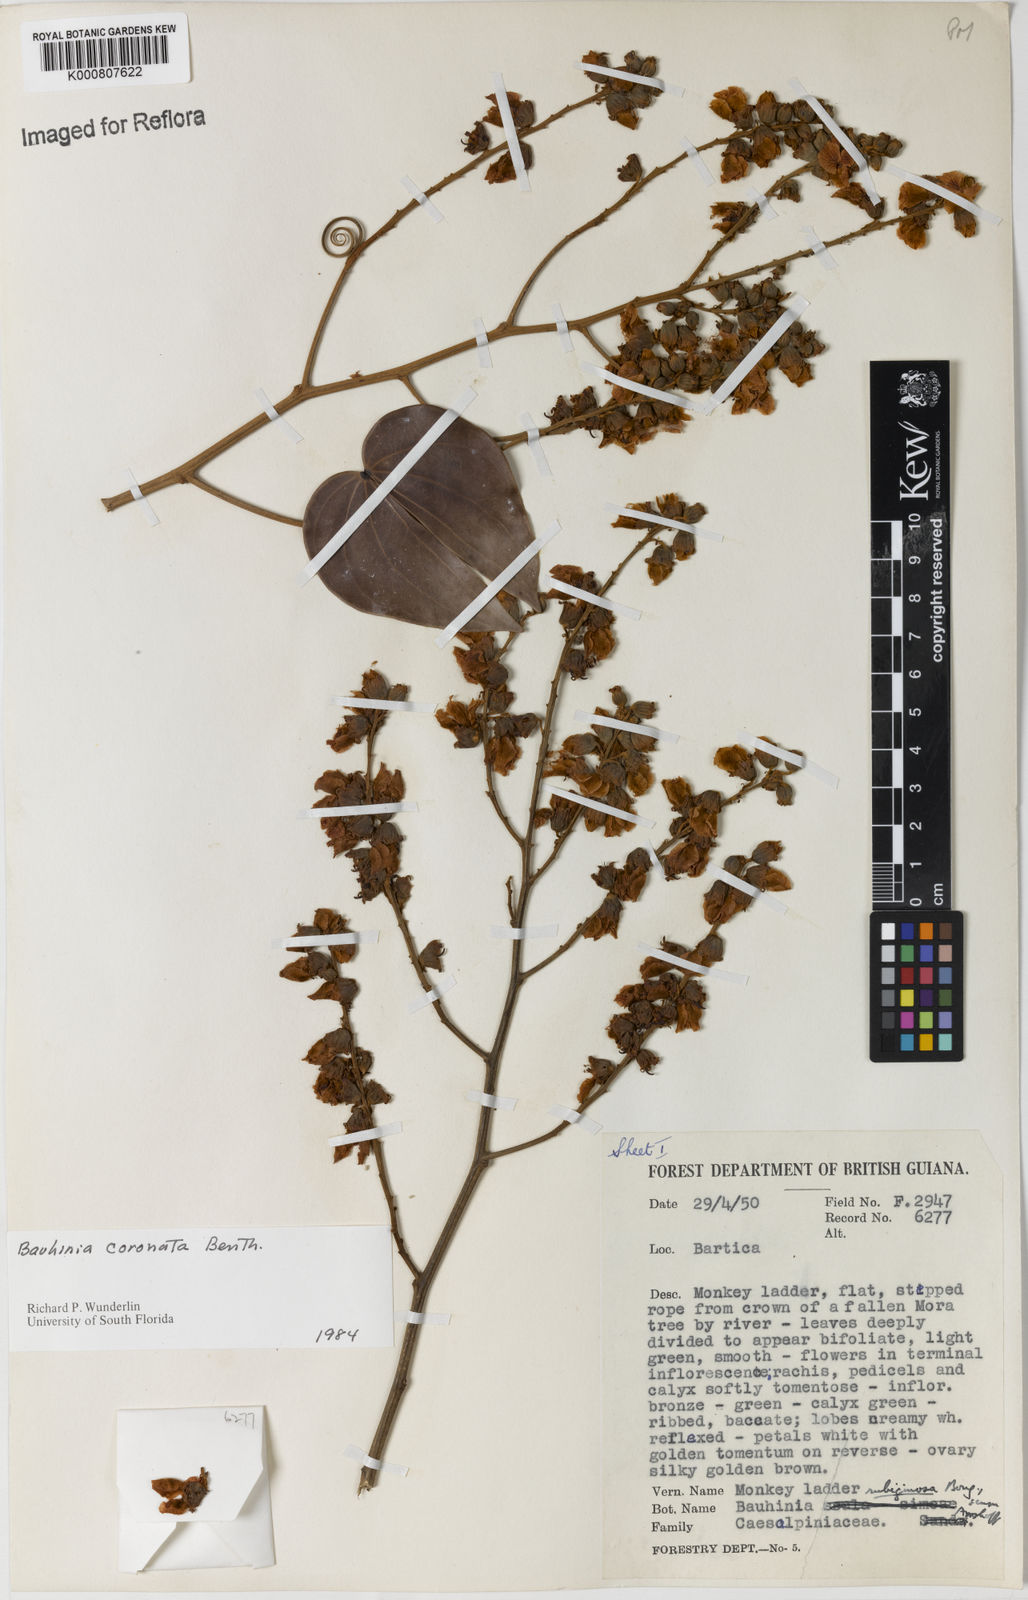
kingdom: Plantae
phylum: Tracheophyta
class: Magnoliopsida
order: Fabales
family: Fabaceae
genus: Schnella
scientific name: Schnella scala-simiae
